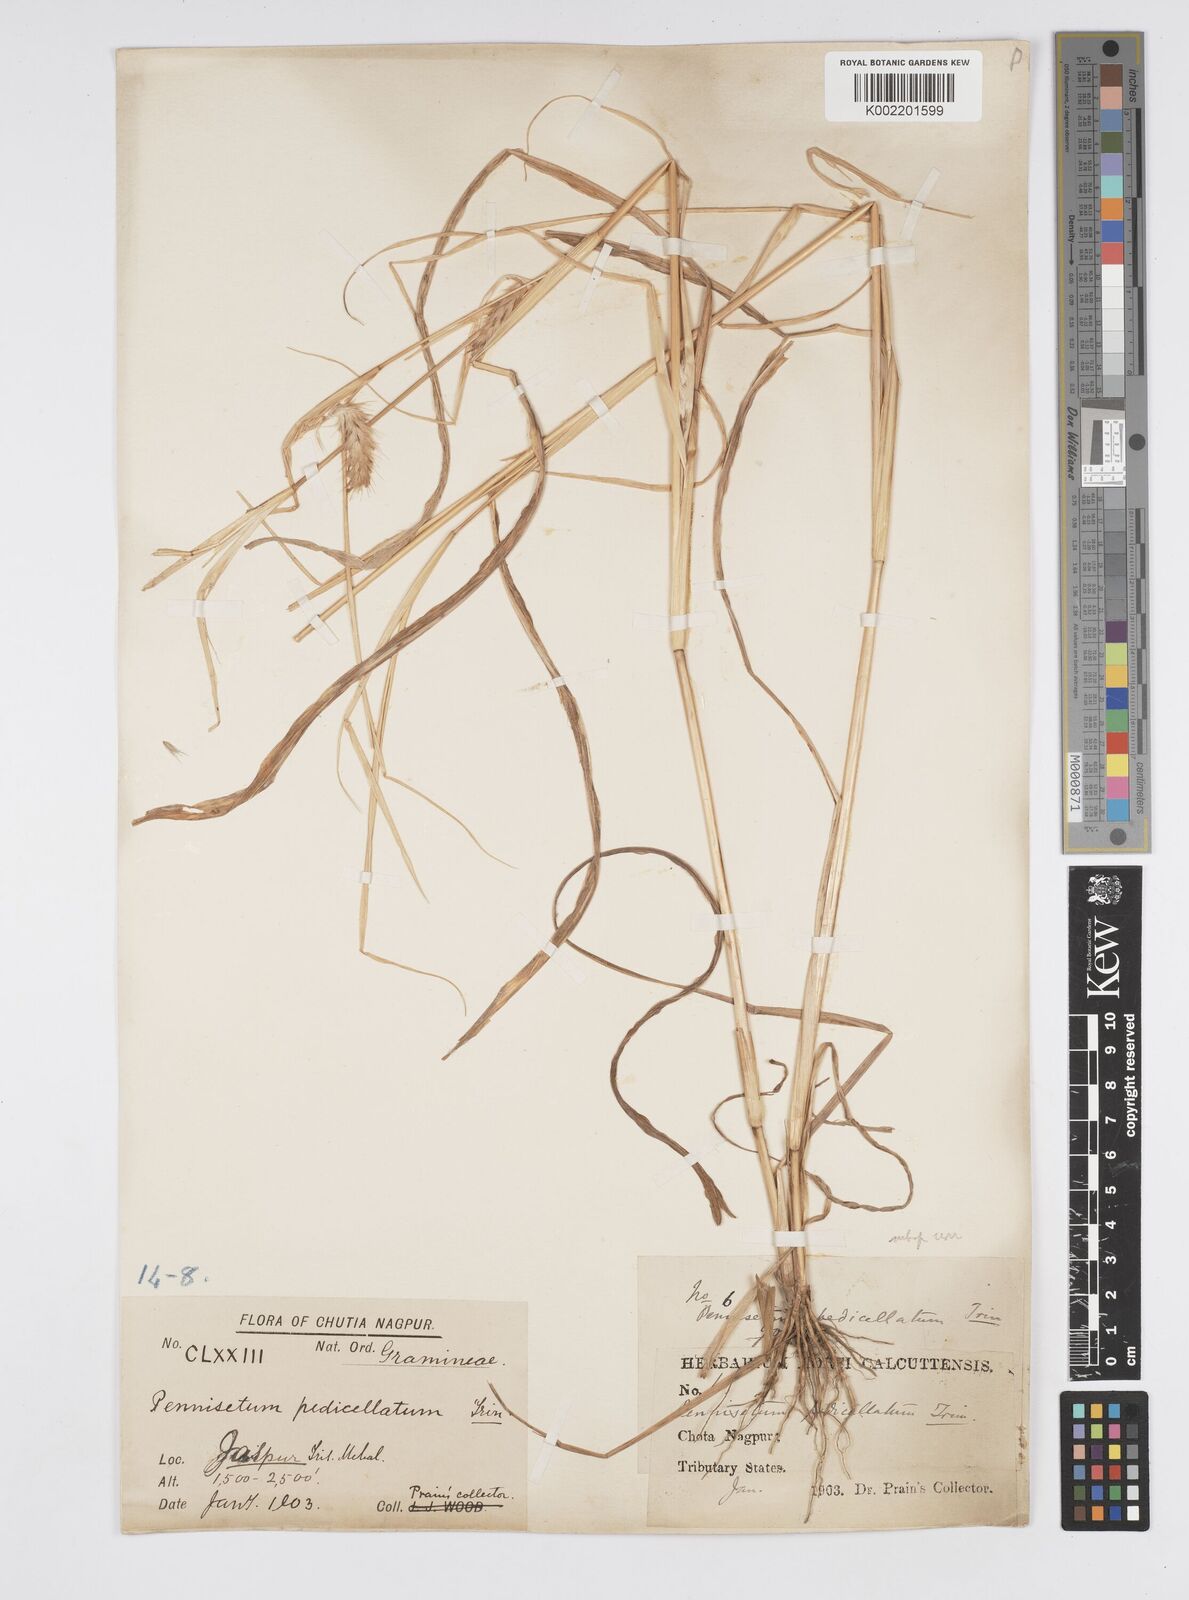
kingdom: Plantae
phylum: Tracheophyta
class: Liliopsida
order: Poales
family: Poaceae
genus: Cenchrus
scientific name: Cenchrus pedicellatus
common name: Hairy fountain grass
